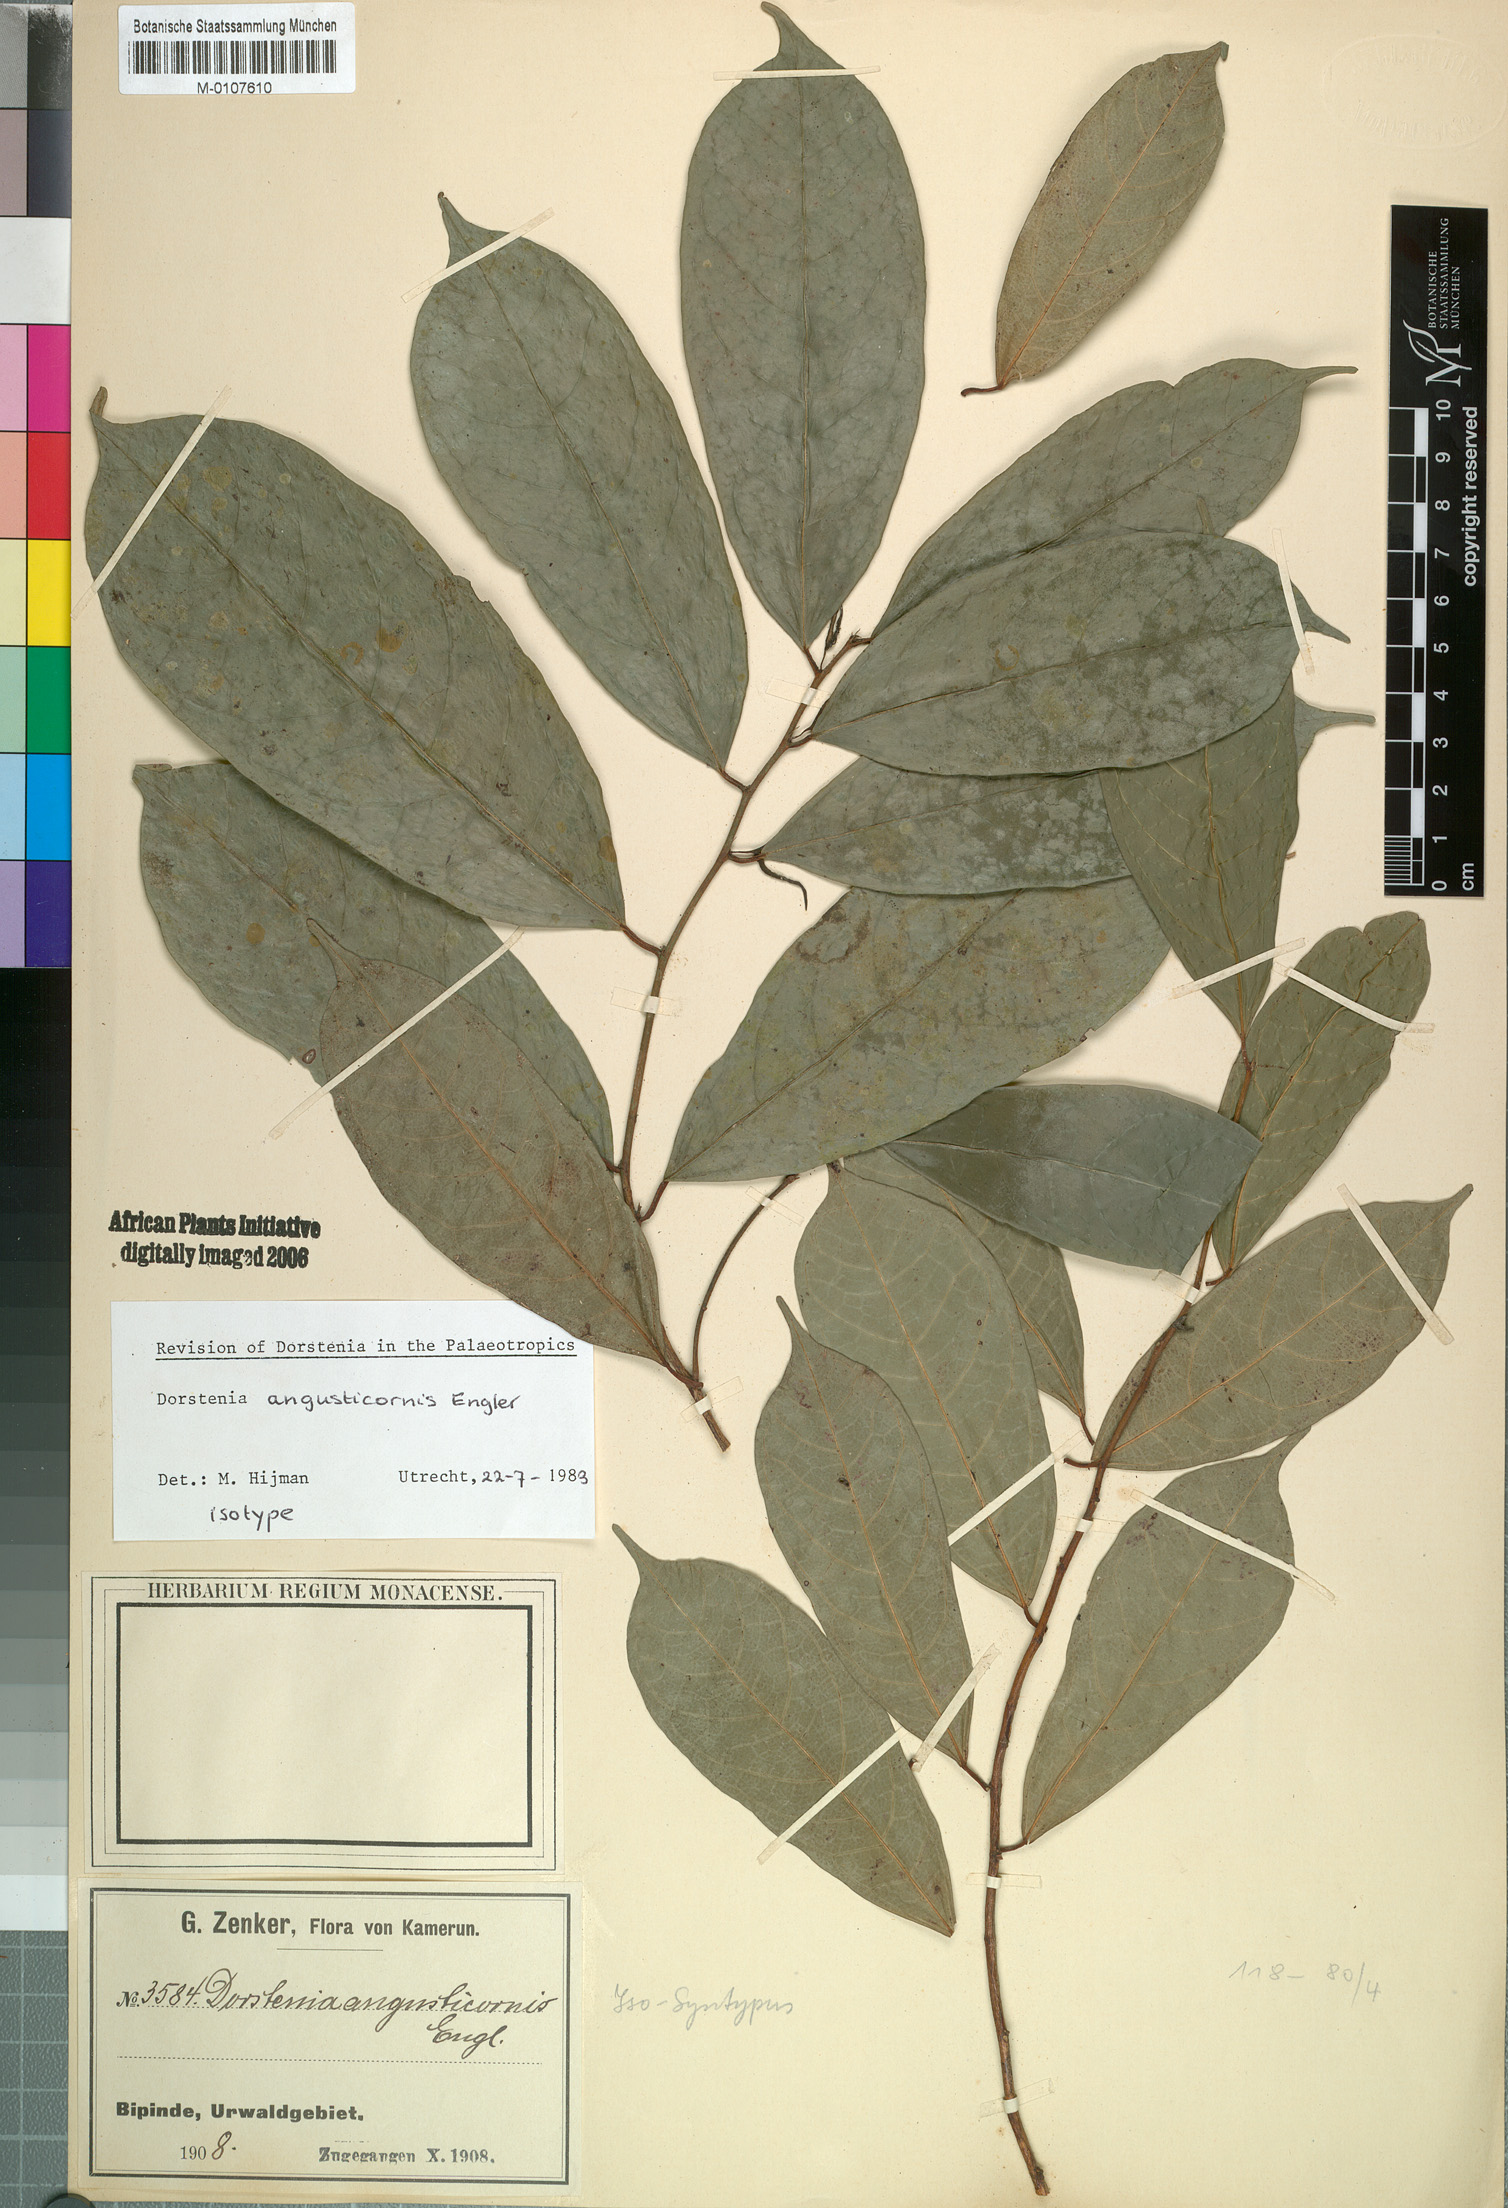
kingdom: Plantae
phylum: Tracheophyta
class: Magnoliopsida
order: Rosales
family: Moraceae
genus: Hijmania
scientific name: Hijmania angusticornis
